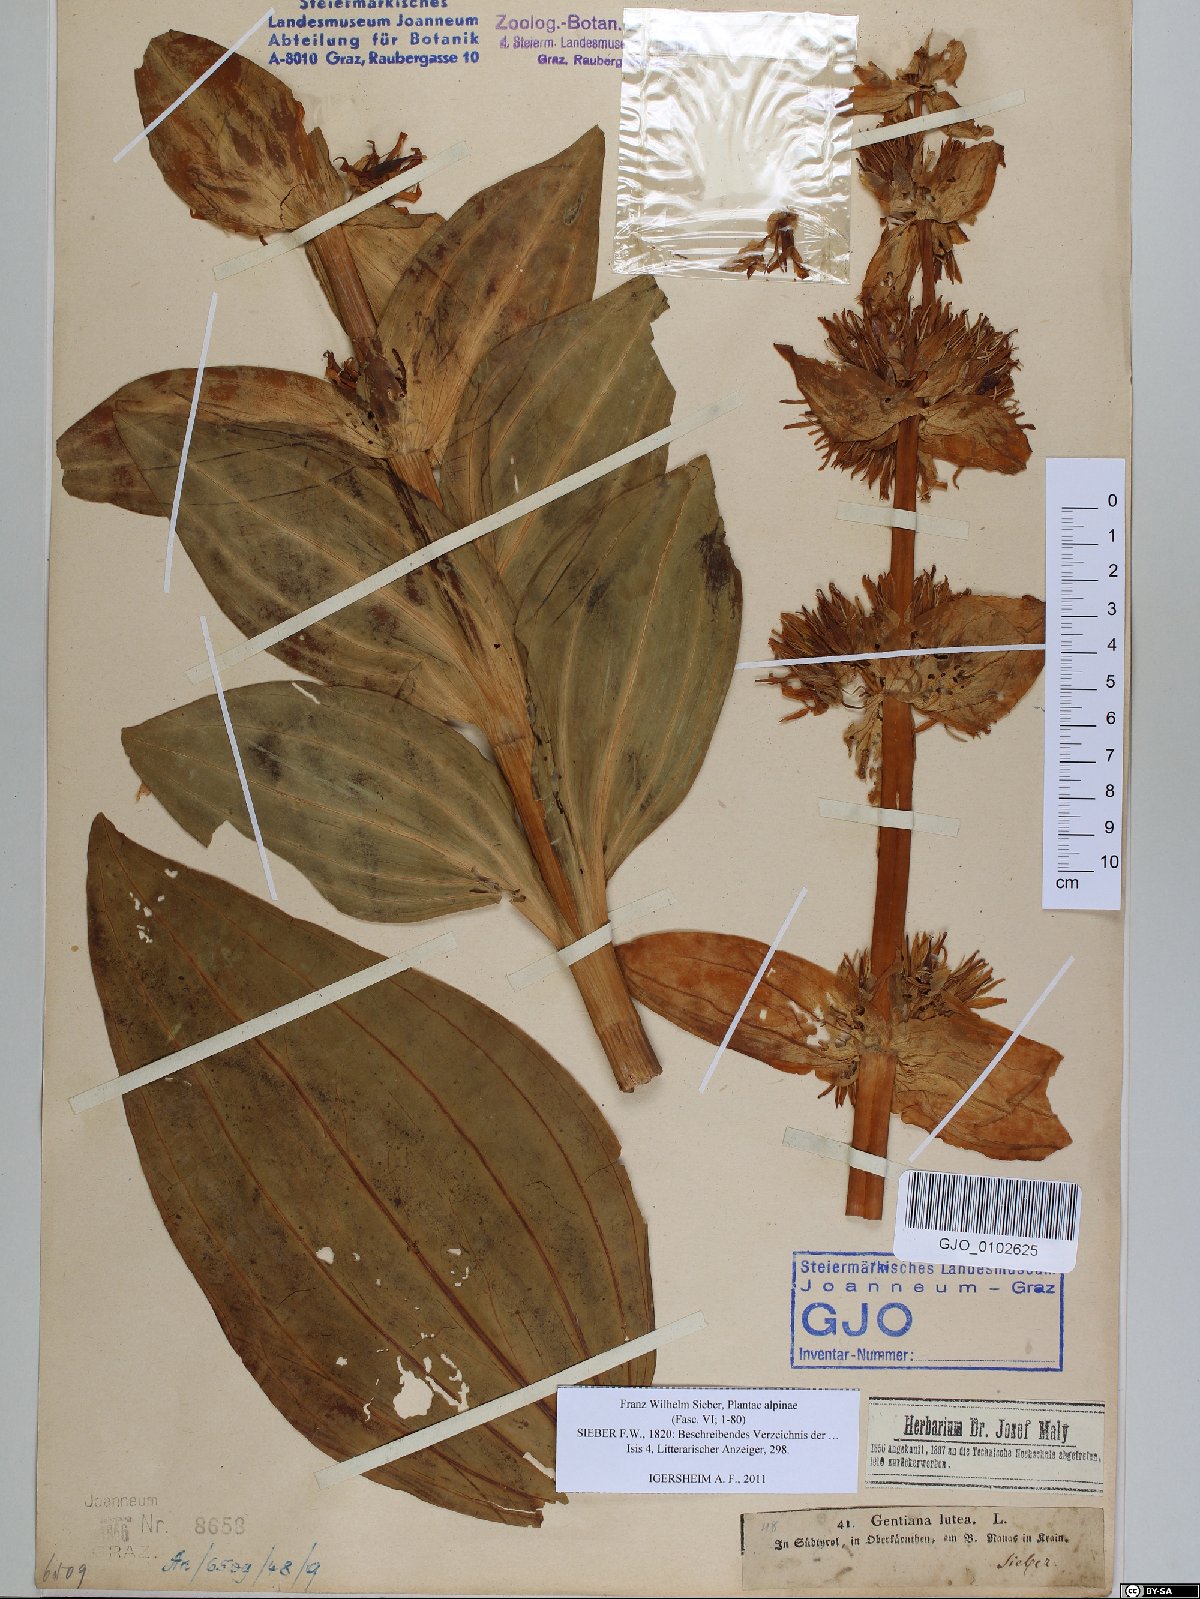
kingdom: Plantae
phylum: Tracheophyta
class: Magnoliopsida
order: Gentianales
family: Gentianaceae
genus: Gentiana
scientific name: Gentiana lutea
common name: Great yellow gentian
